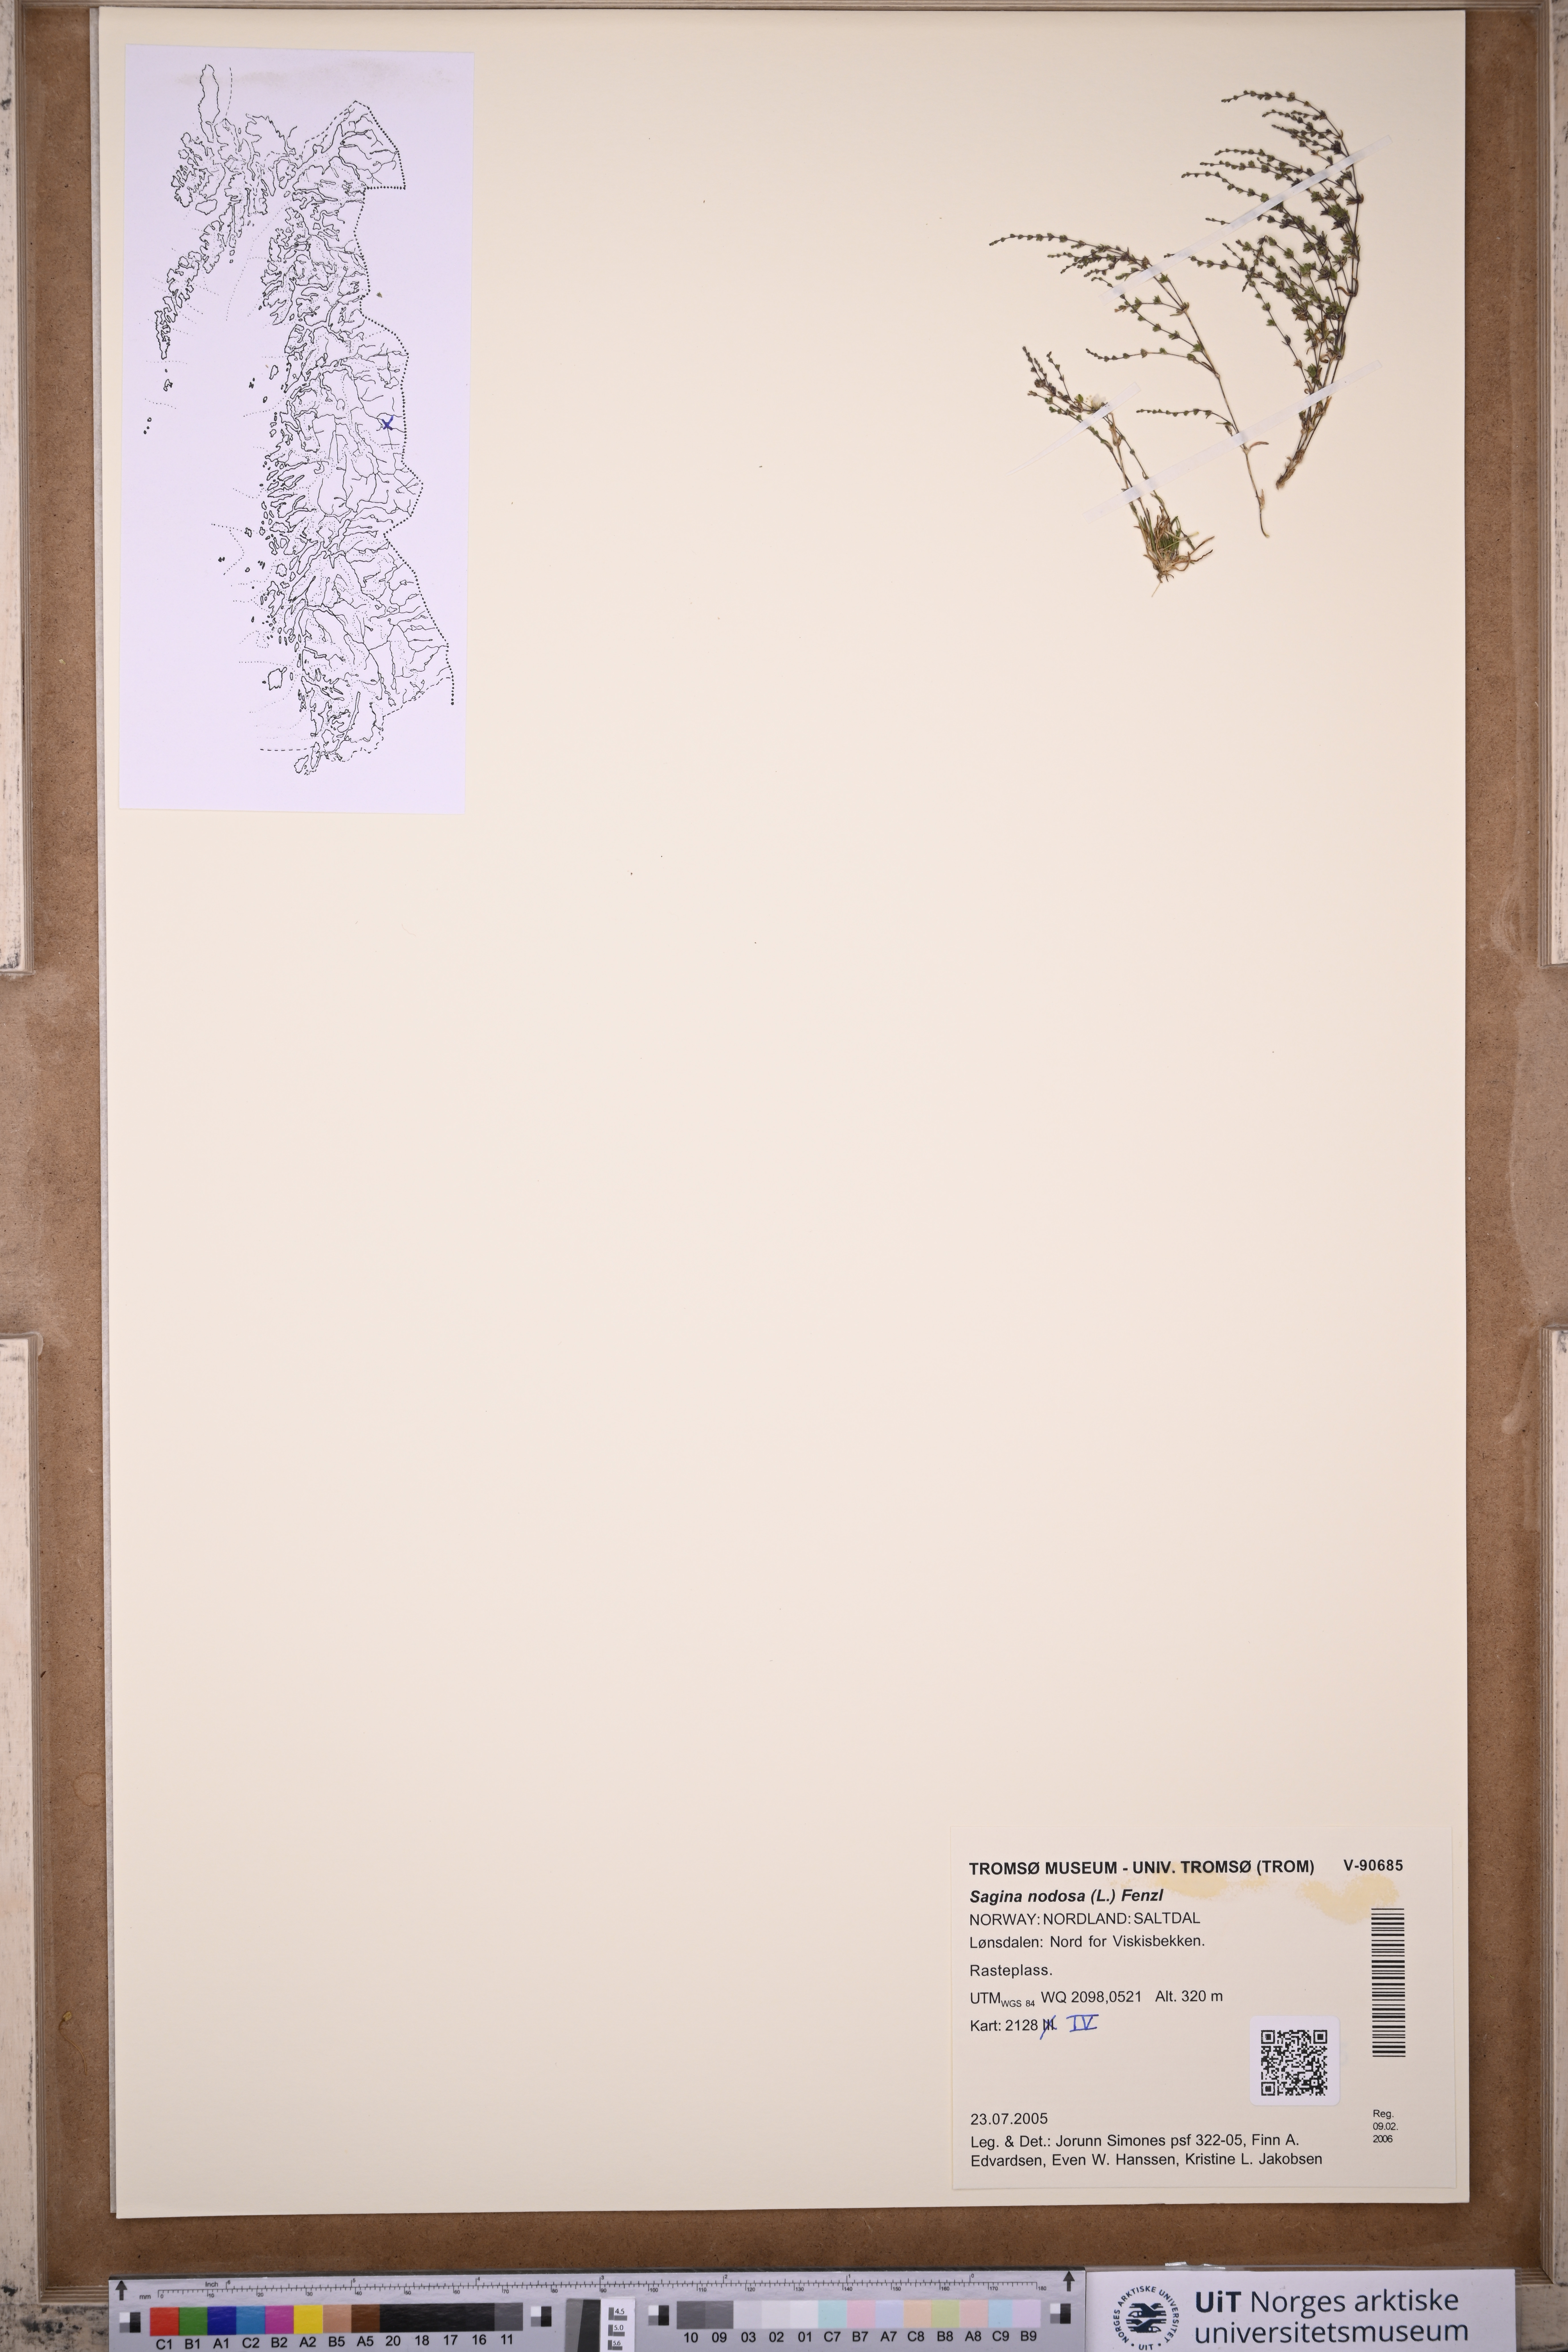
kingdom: Plantae
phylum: Tracheophyta
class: Magnoliopsida
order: Caryophyllales
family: Caryophyllaceae
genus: Sagina
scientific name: Sagina nodosa
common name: Knotted pearlwort
